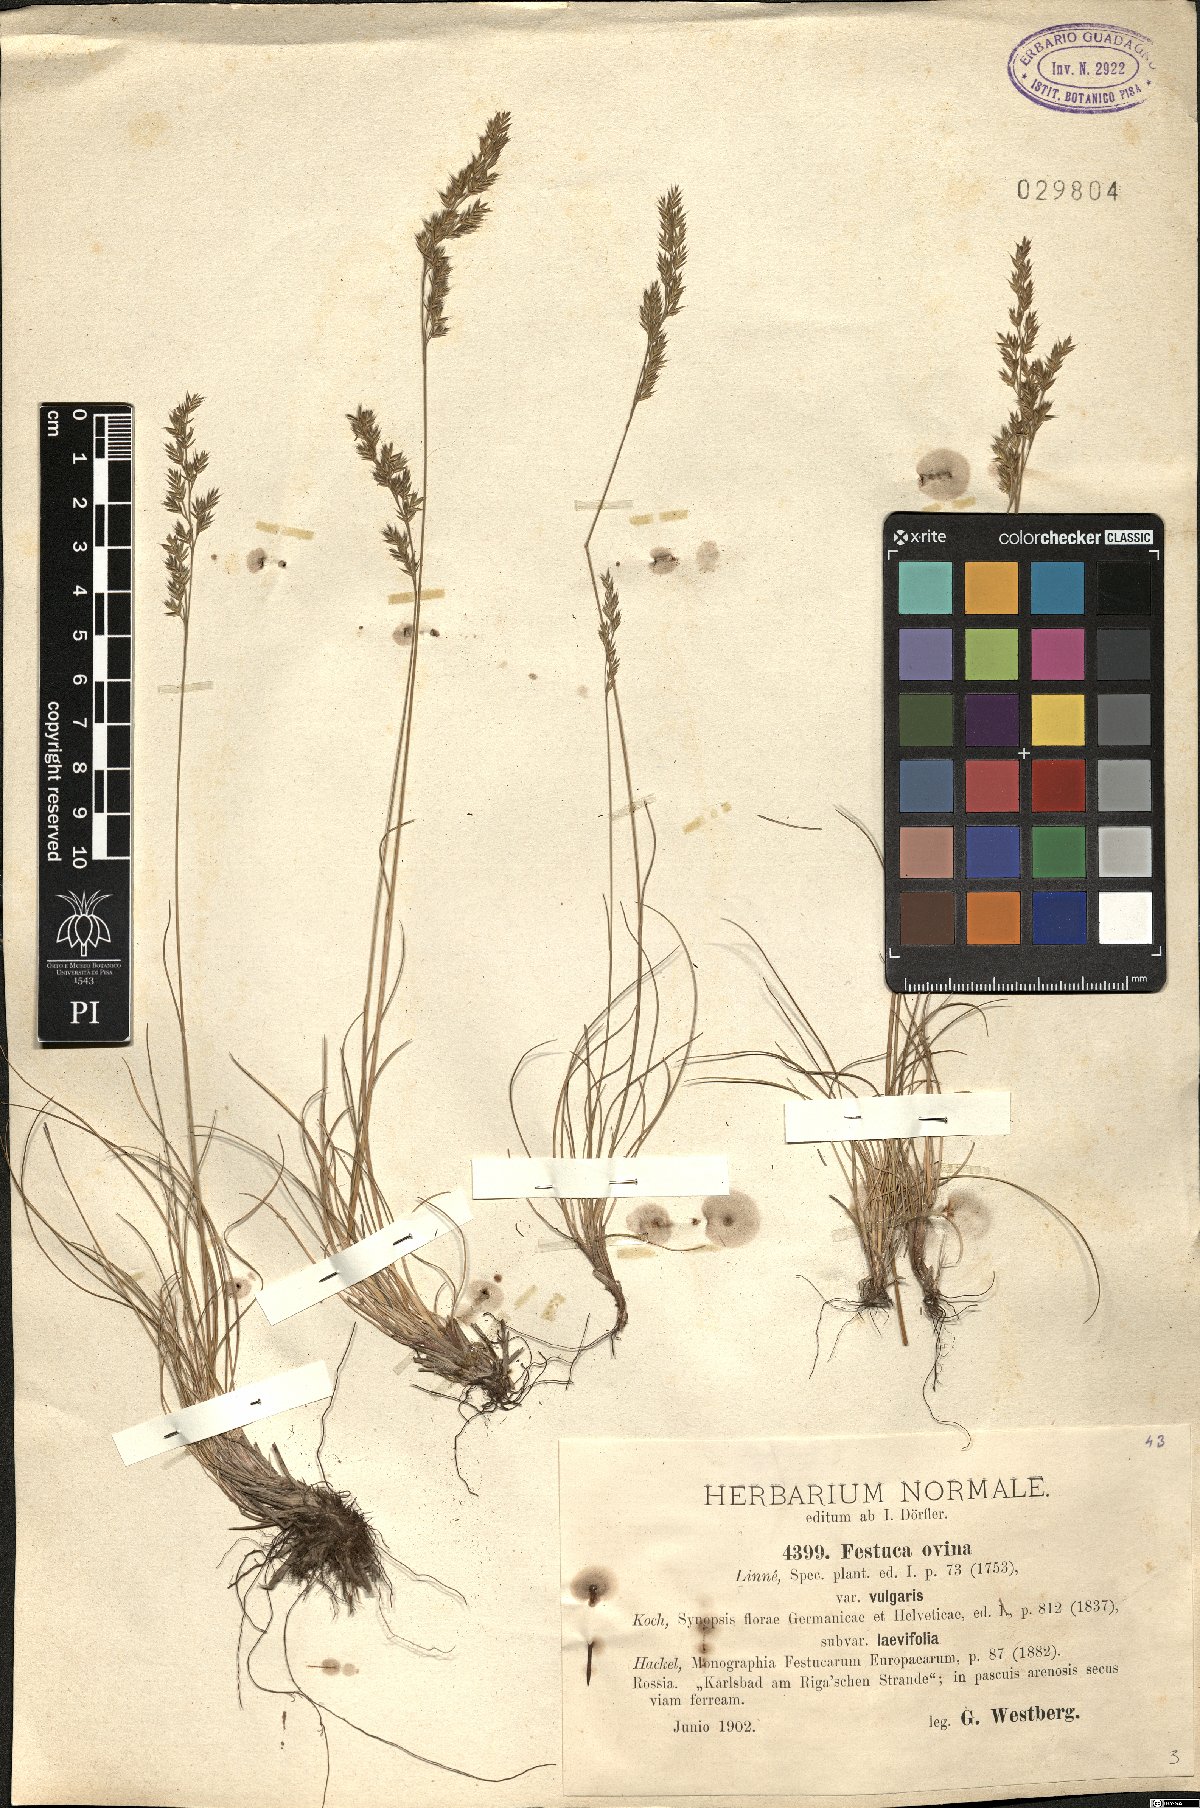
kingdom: Plantae
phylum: Tracheophyta
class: Liliopsida
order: Poales
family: Poaceae
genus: Festuca
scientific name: Festuca ovina
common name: Sheep fescue
